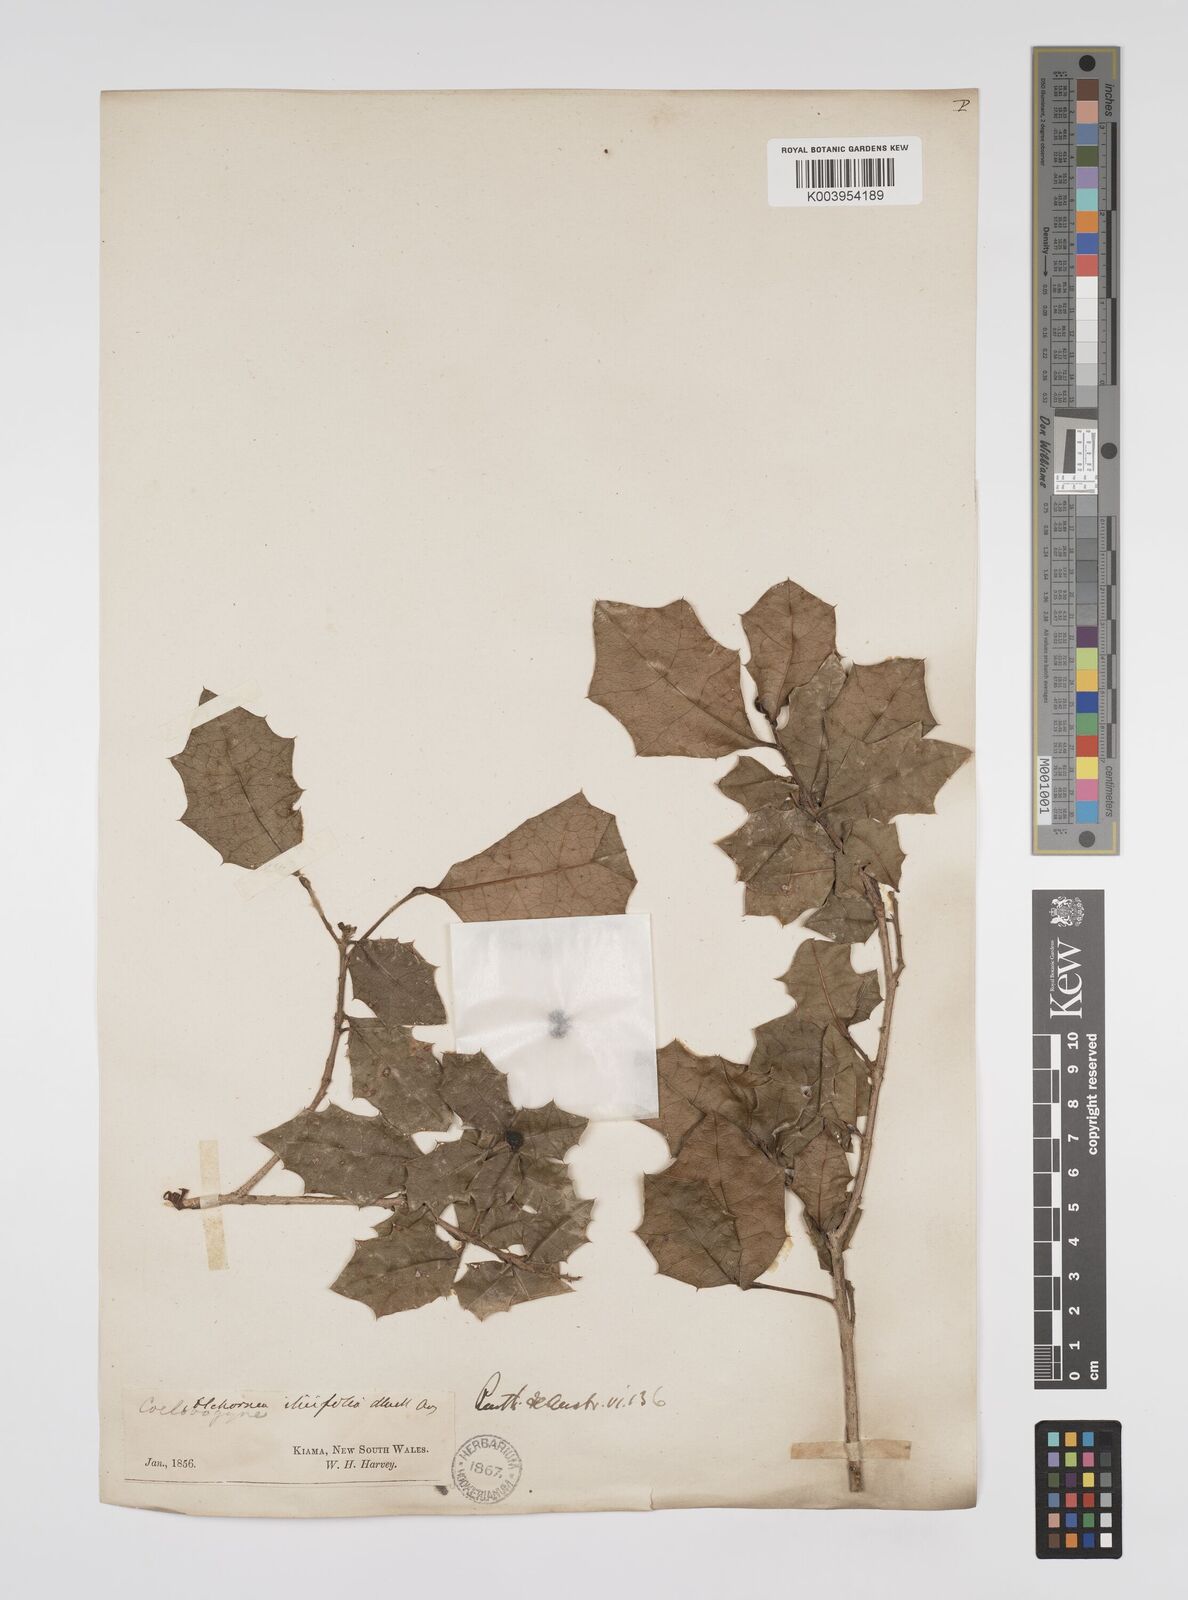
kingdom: Plantae
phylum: Tracheophyta
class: Magnoliopsida
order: Malpighiales
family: Euphorbiaceae
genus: Alchornea
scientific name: Alchornea ilicifolia
